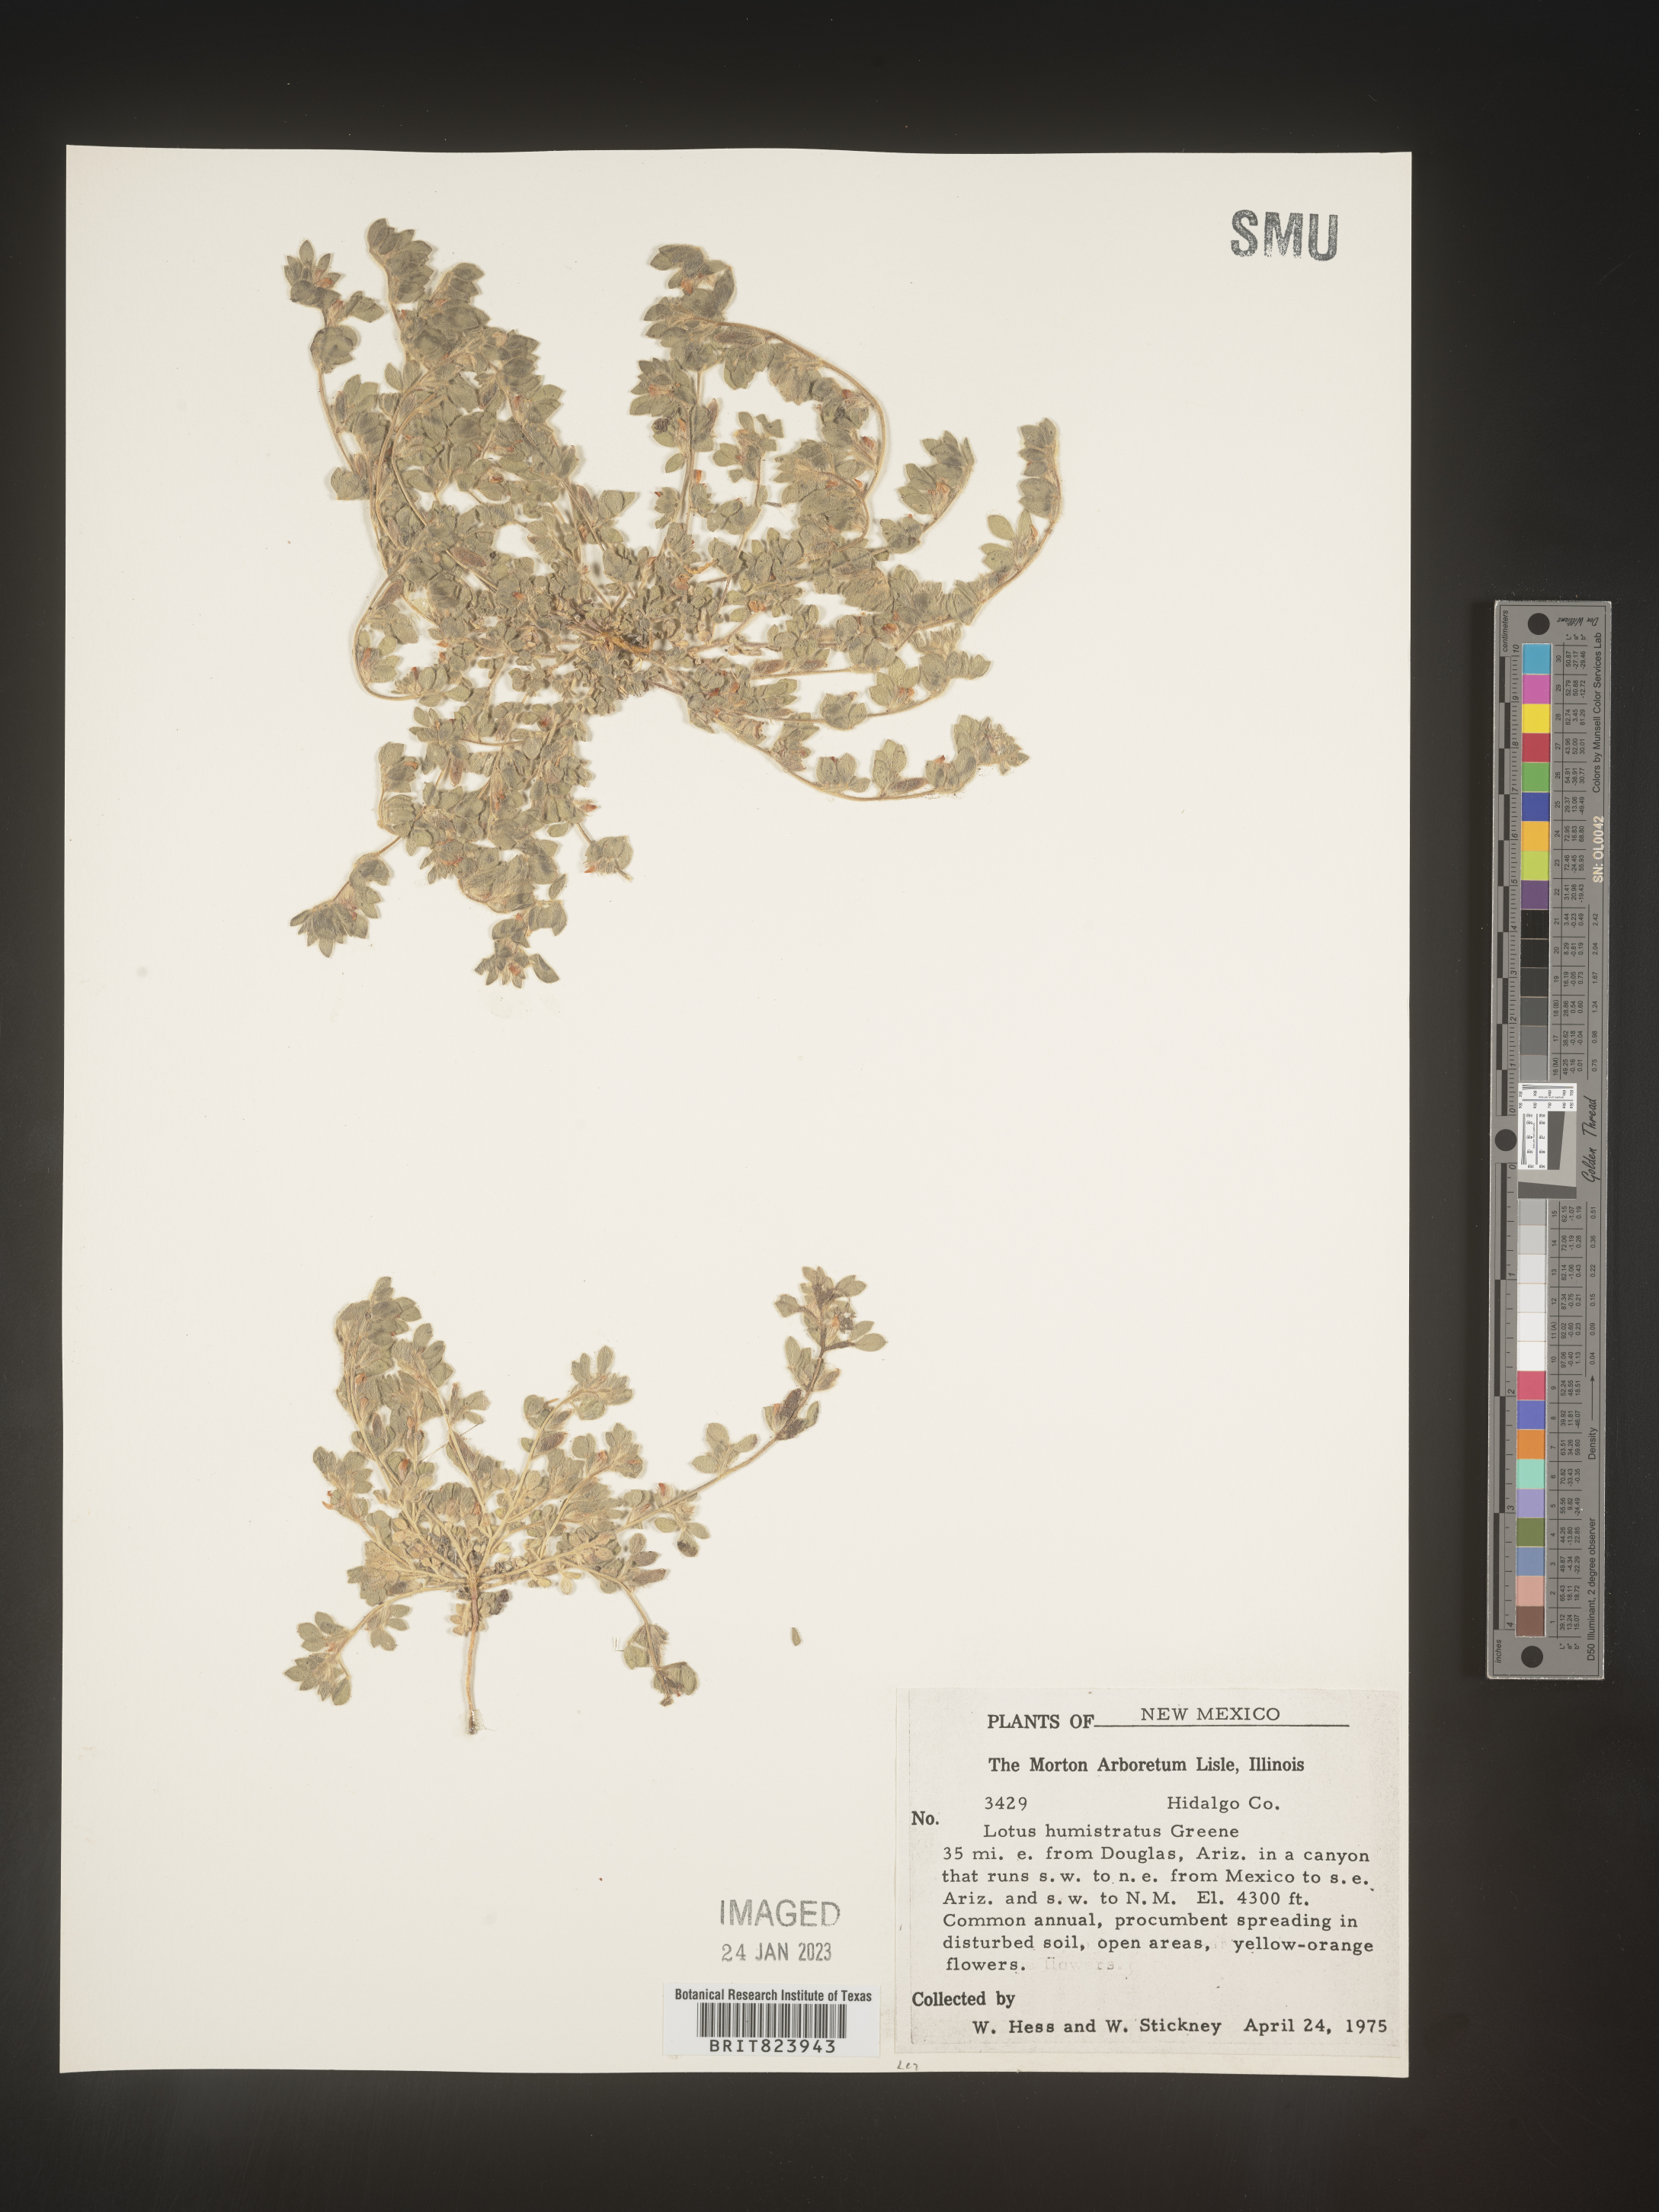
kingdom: Plantae
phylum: Tracheophyta
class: Magnoliopsida
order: Fabales
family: Fabaceae
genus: Acmispon
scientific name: Acmispon brachycarpus
